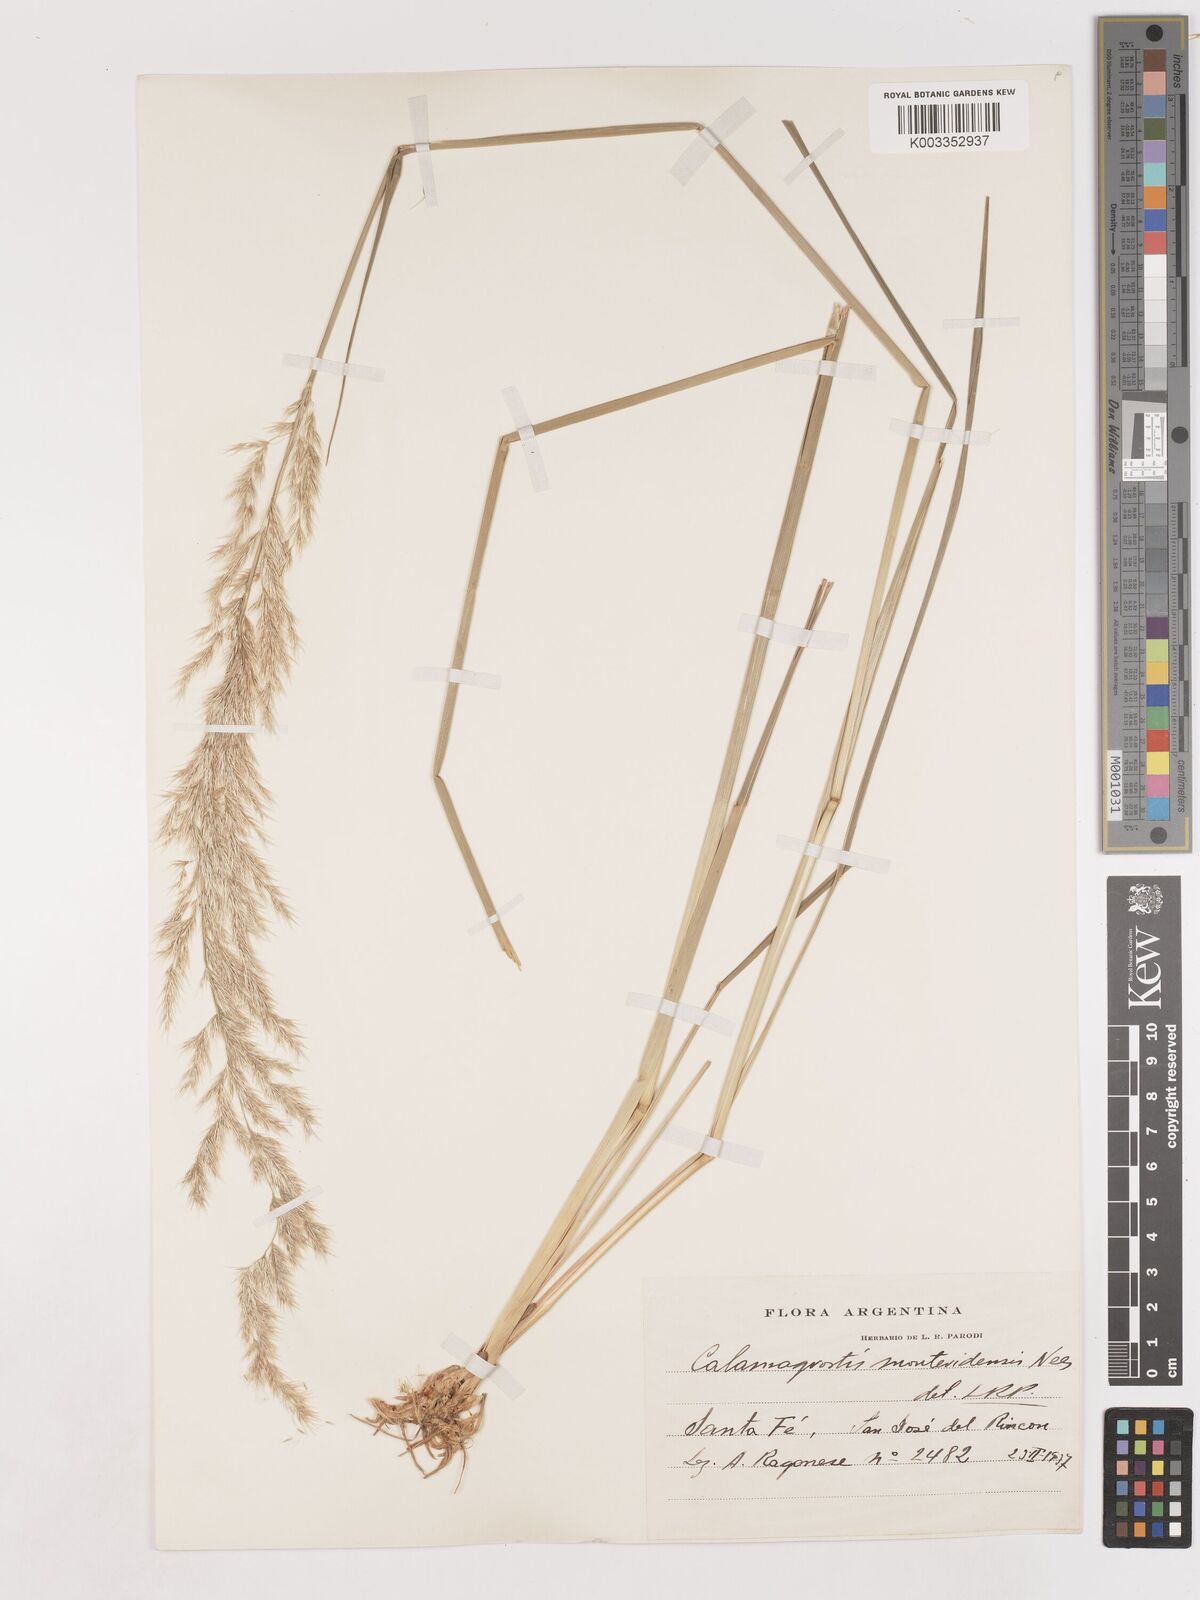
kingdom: Plantae
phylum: Tracheophyta
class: Liliopsida
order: Poales
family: Poaceae
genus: Cinnagrostis
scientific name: Cinnagrostis viridiflavescens
